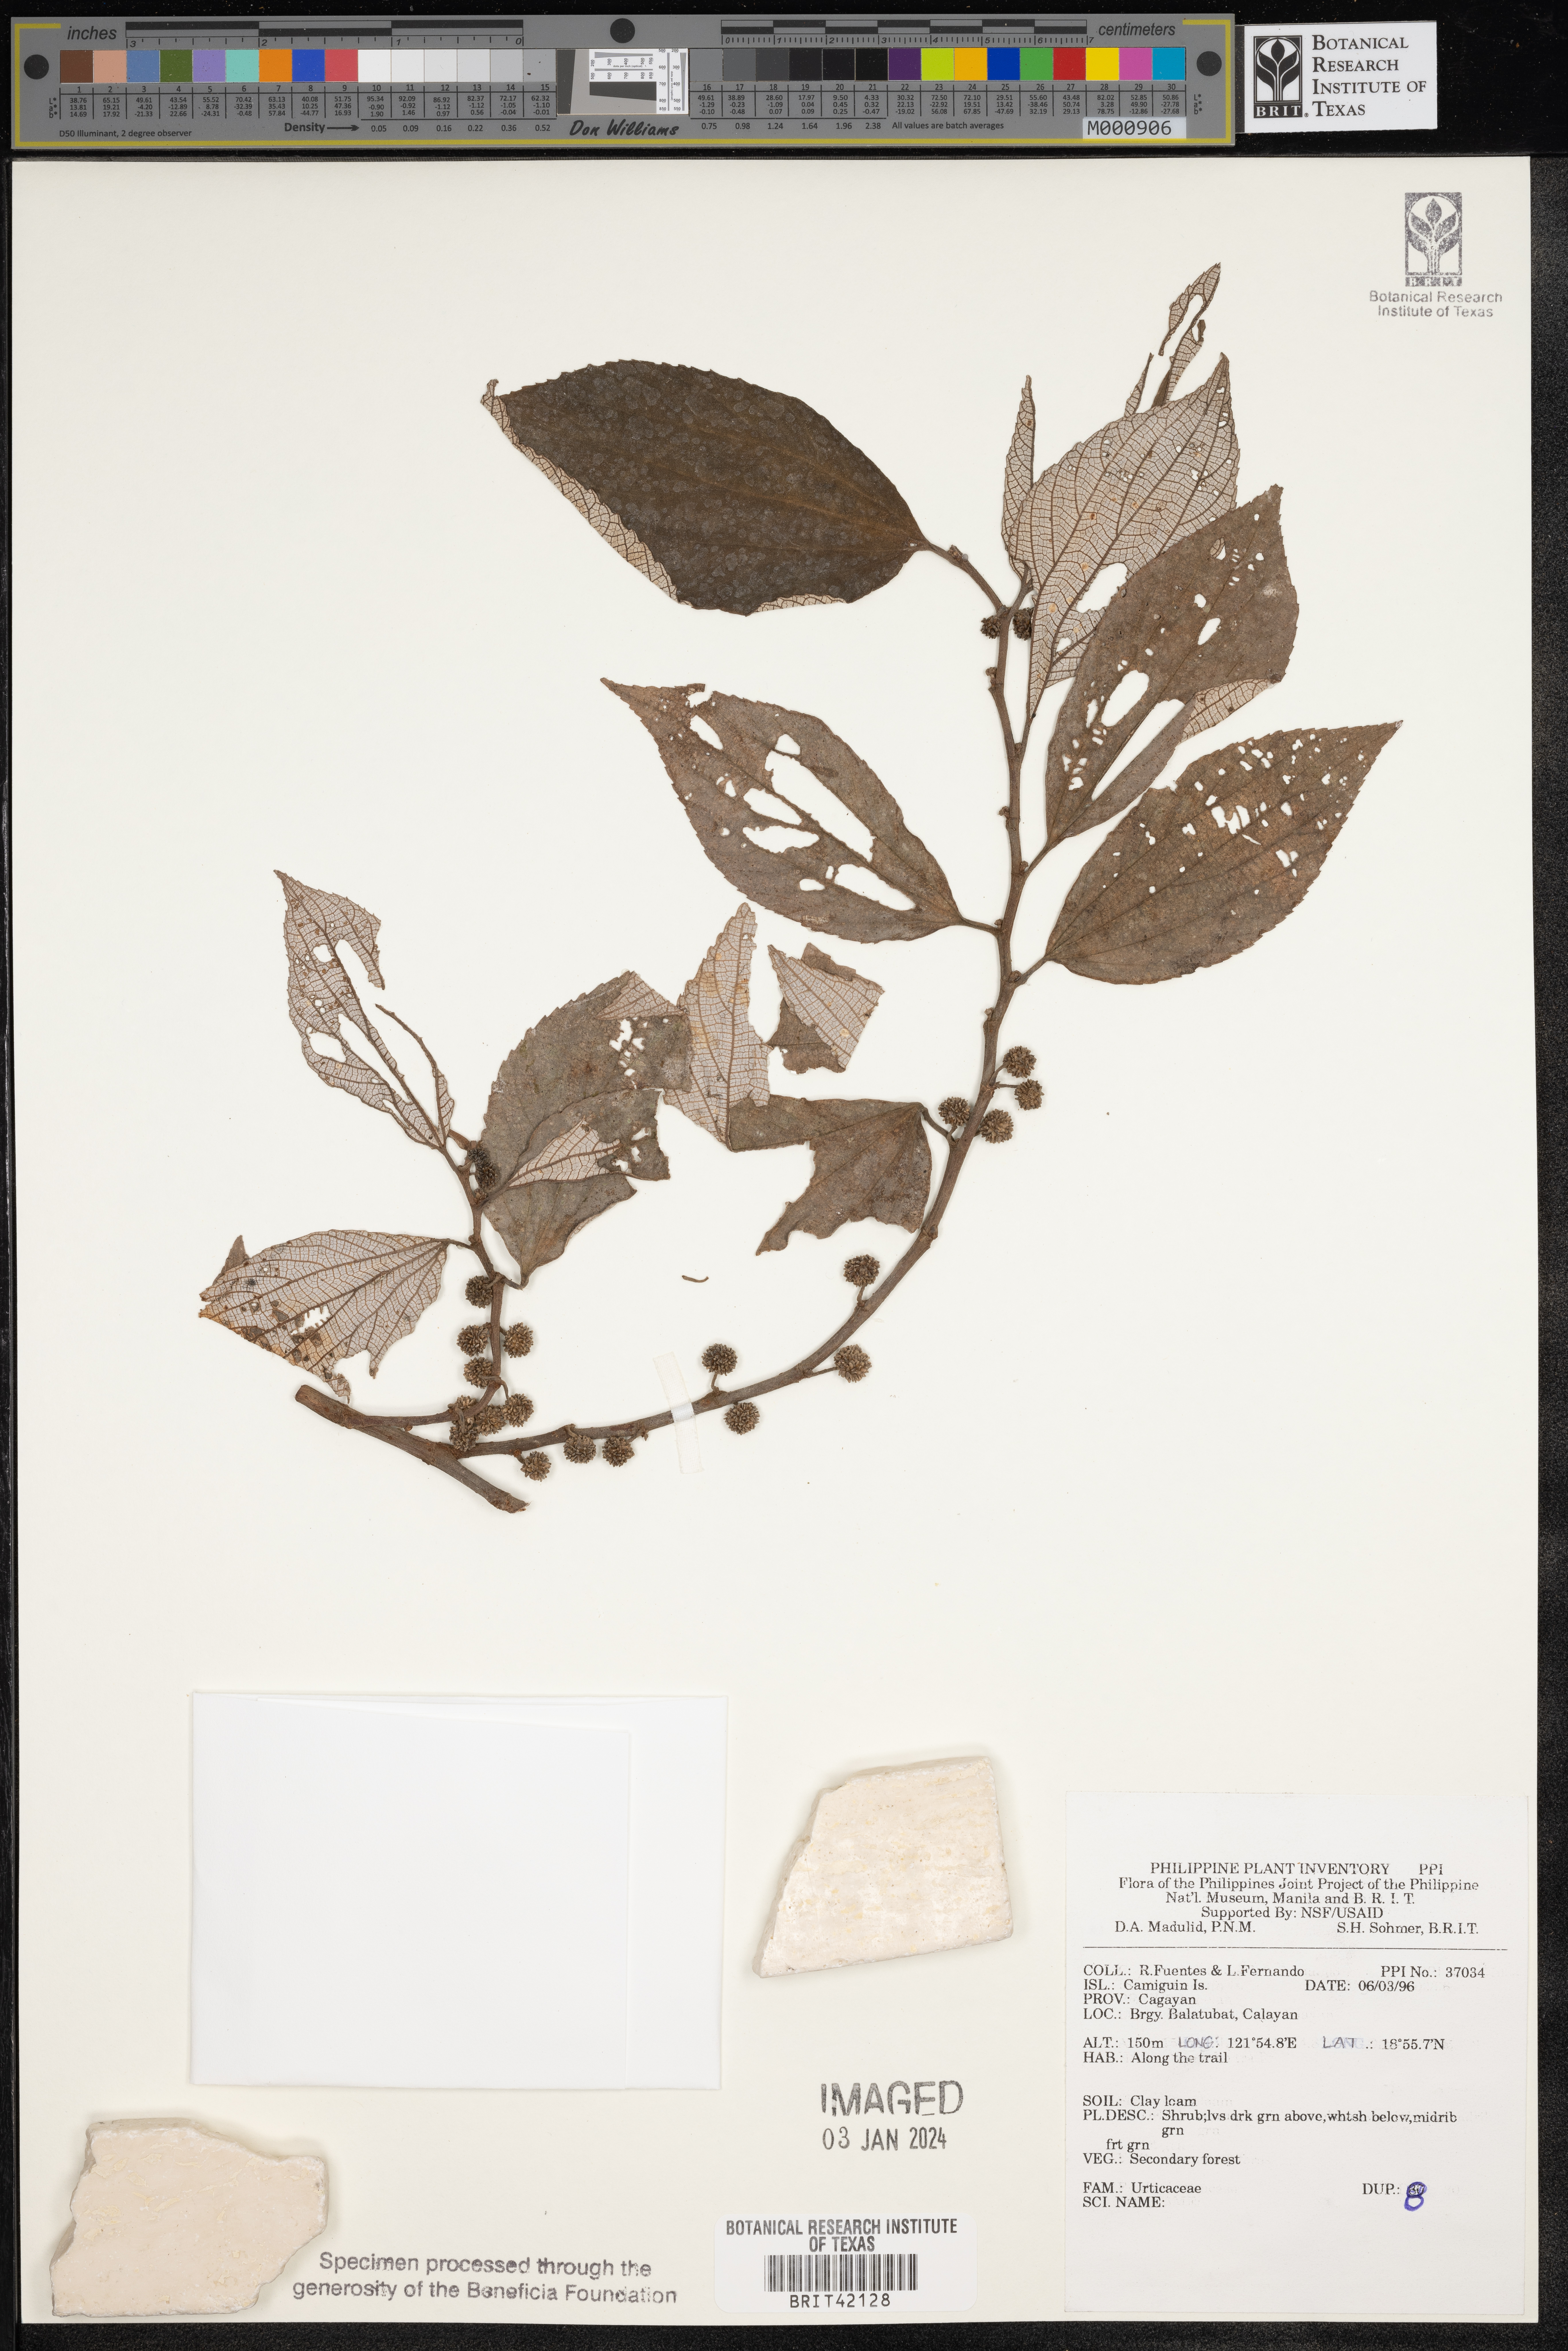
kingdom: Plantae
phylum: Tracheophyta
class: Magnoliopsida
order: Rosales
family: Urticaceae
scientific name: Urticaceae
